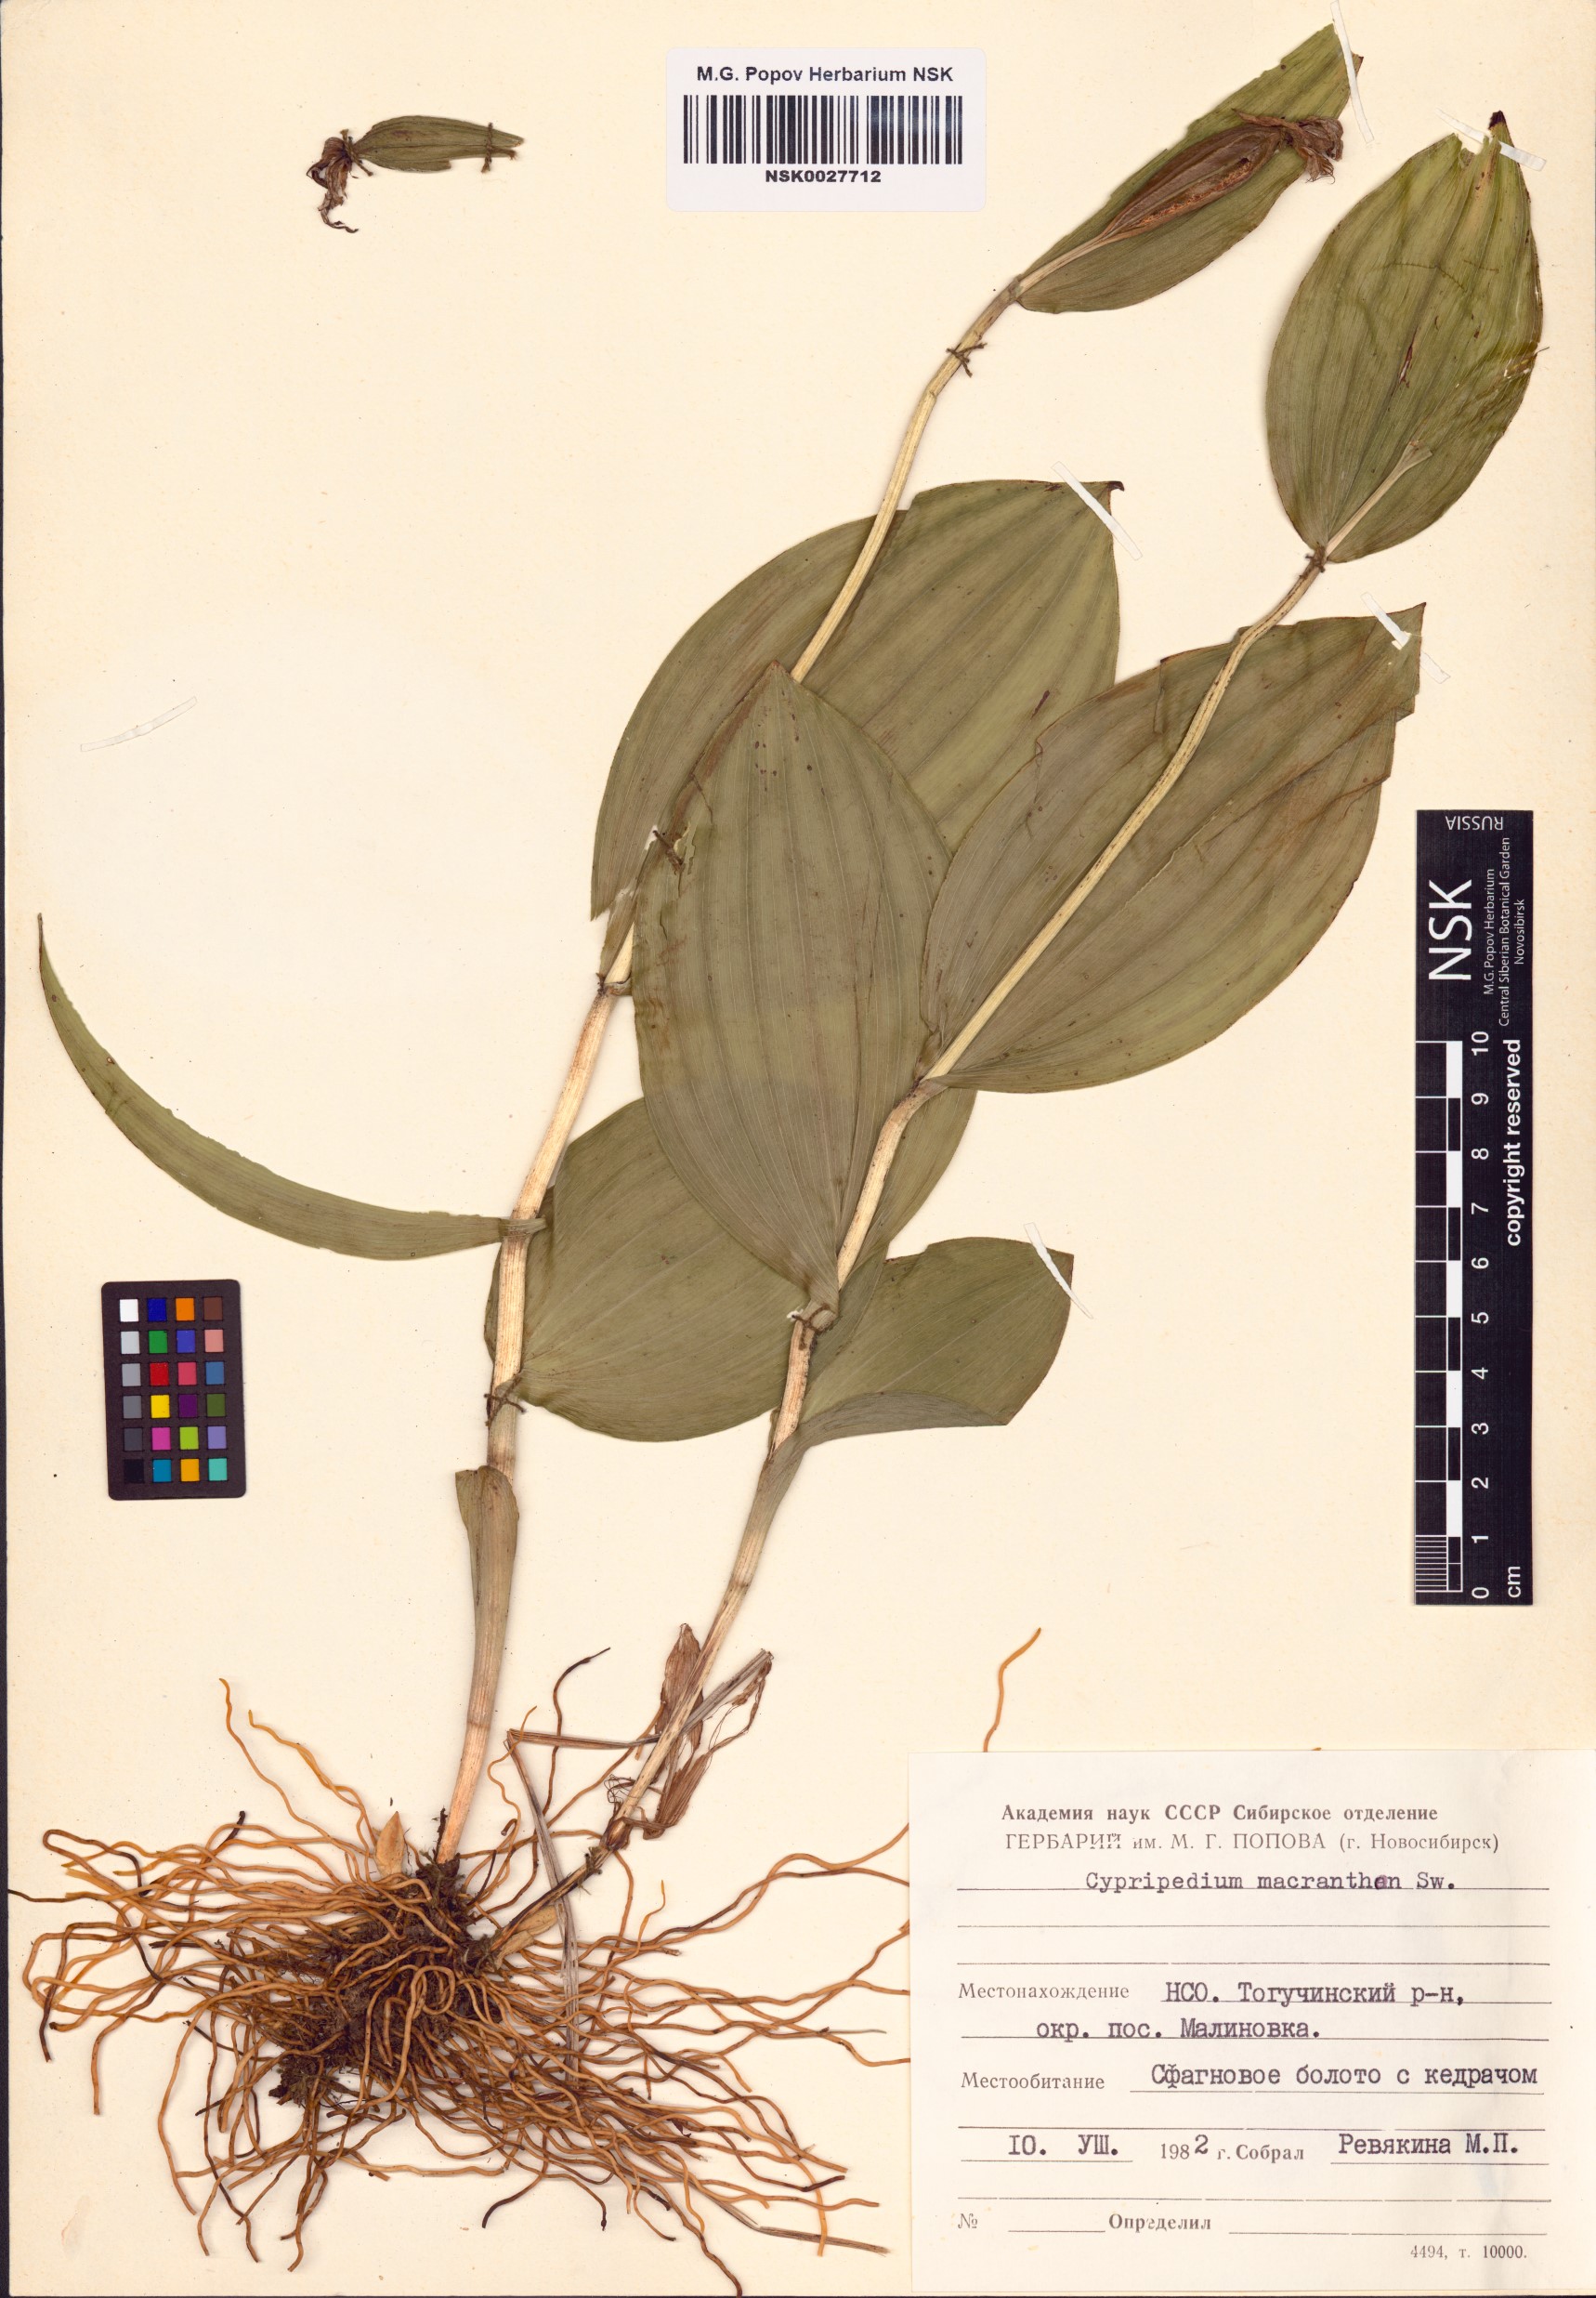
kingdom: Plantae
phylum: Tracheophyta
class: Liliopsida
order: Asparagales
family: Orchidaceae
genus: Cypripedium
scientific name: Cypripedium macranthos
